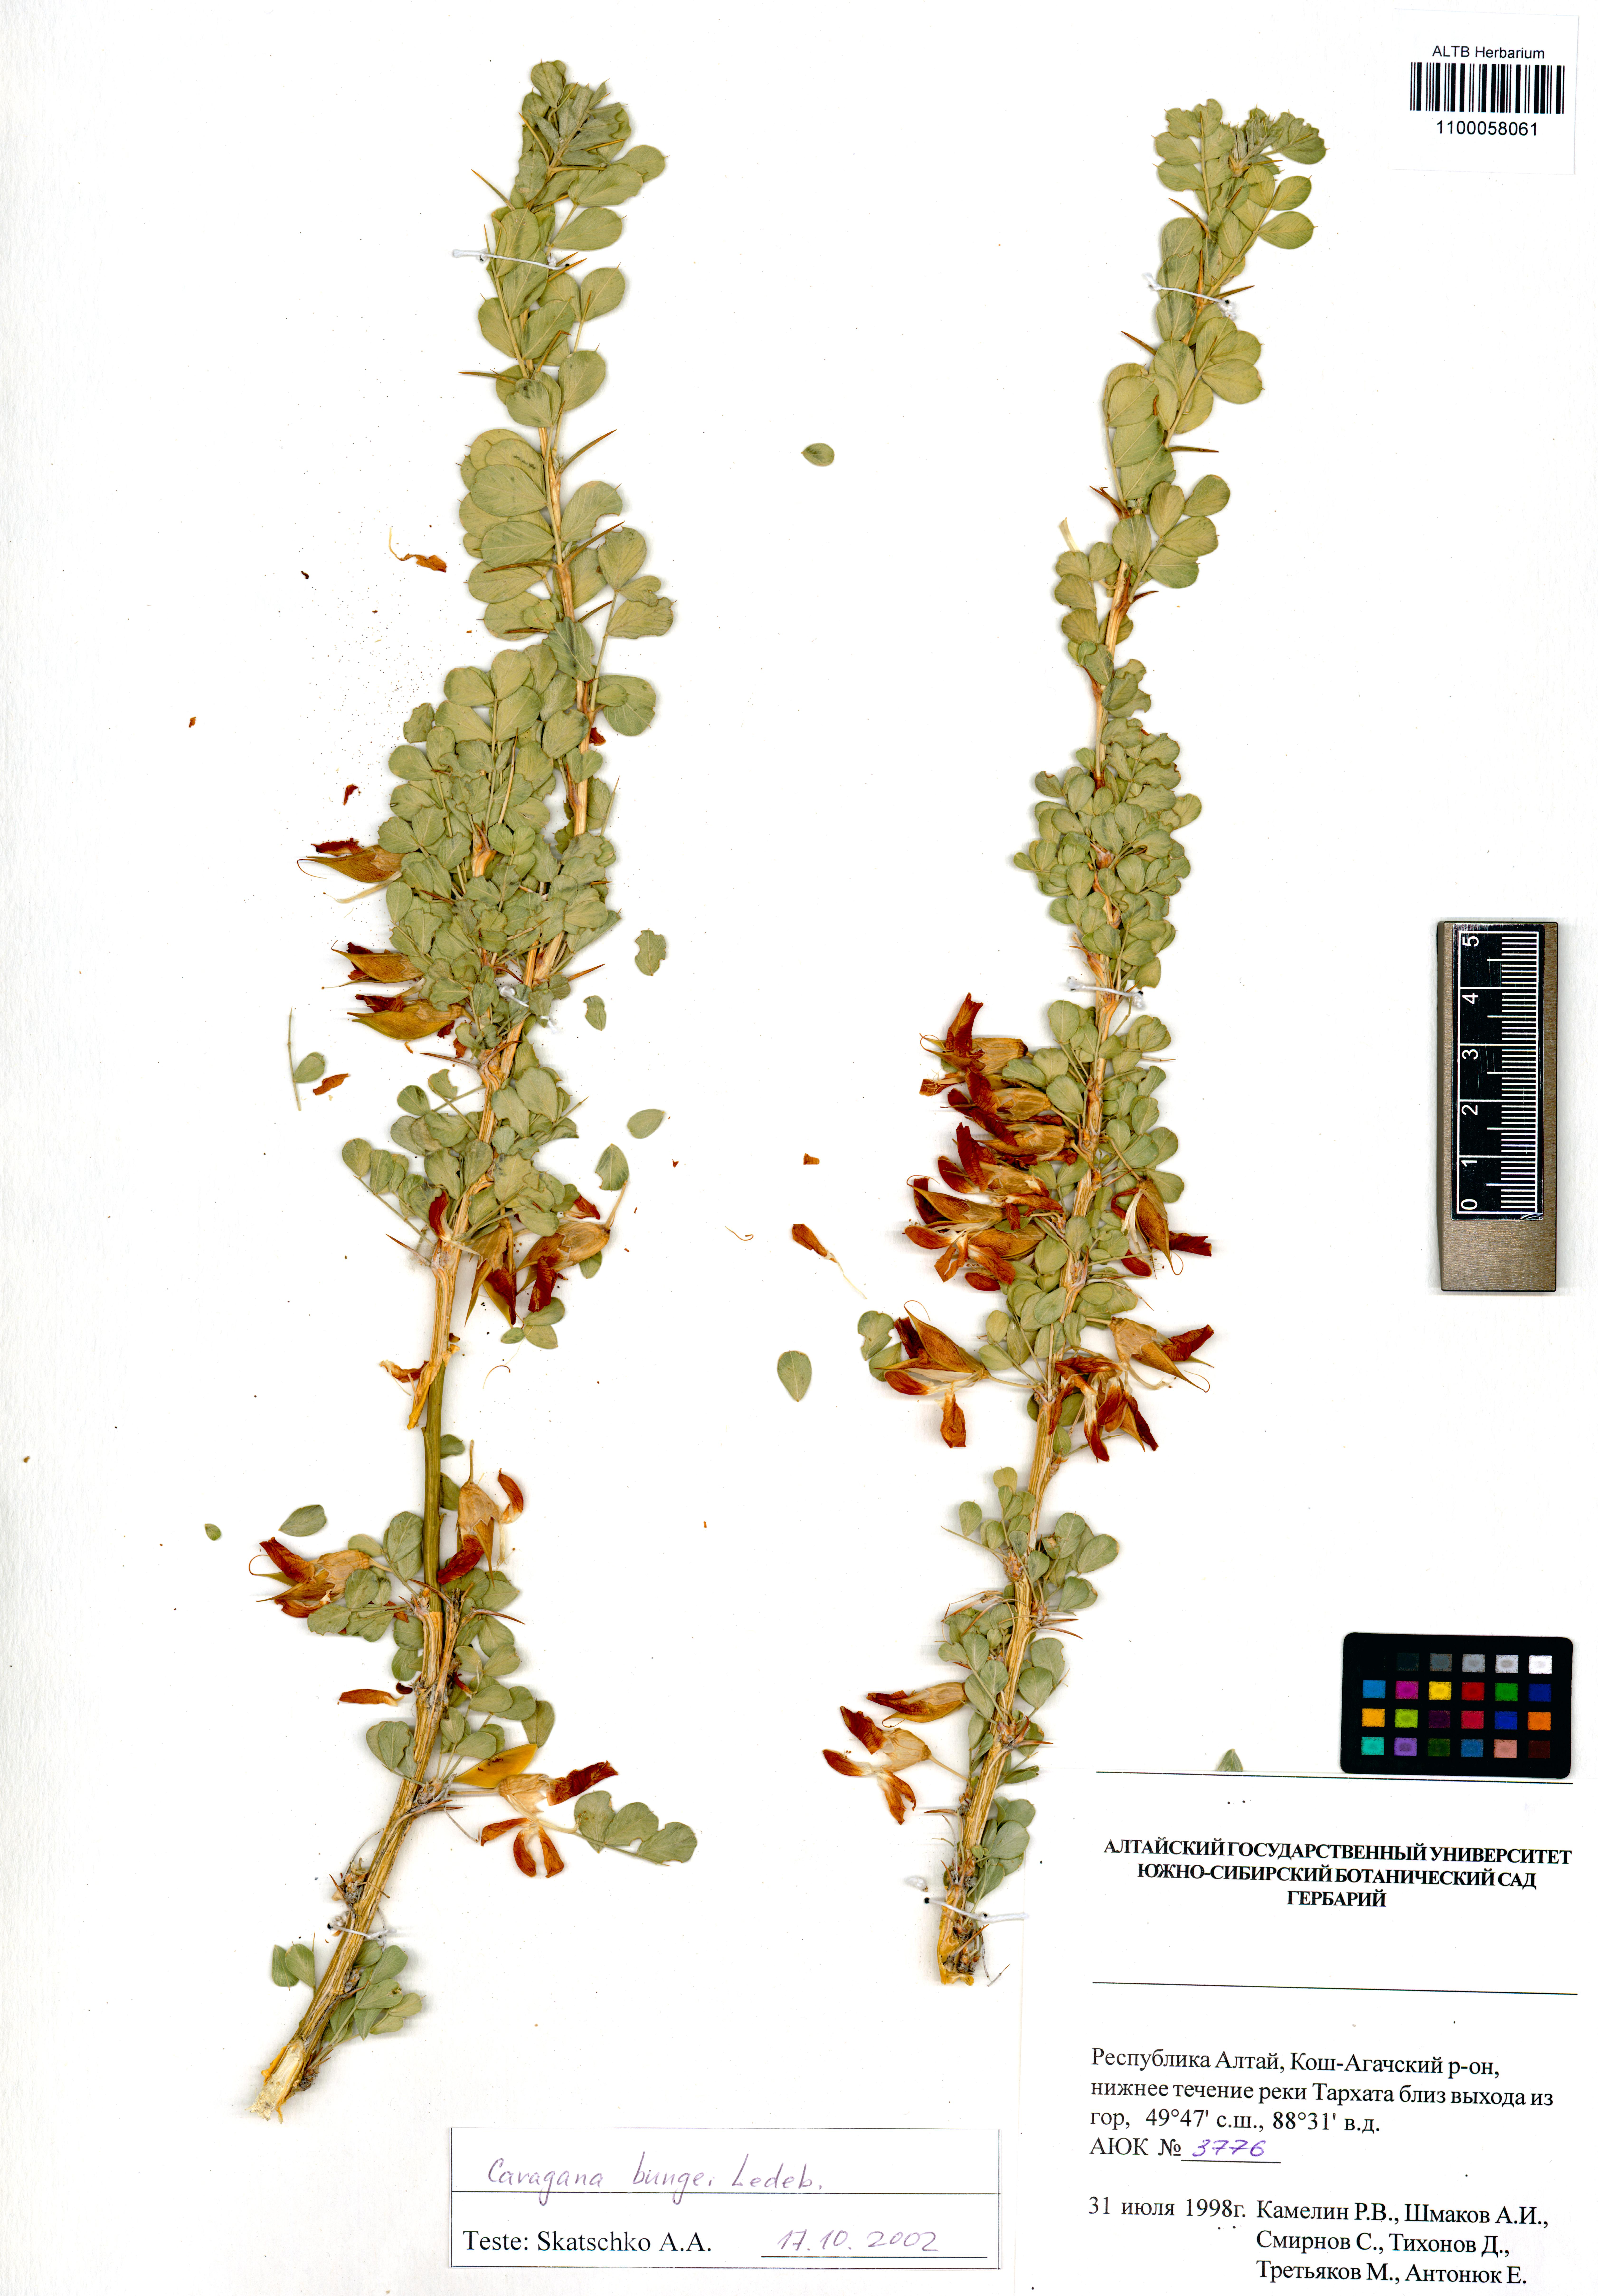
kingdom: Plantae
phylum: Tracheophyta
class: Magnoliopsida
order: Fabales
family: Fabaceae
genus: Caragana
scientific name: Caragana bungei
